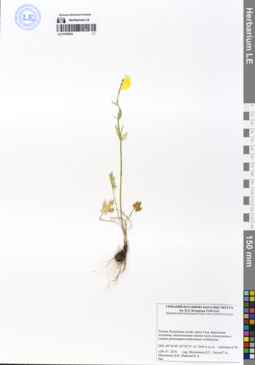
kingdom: Plantae
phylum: Tracheophyta
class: Magnoliopsida
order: Ranunculales
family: Ranunculaceae
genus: Ranunculus
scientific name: Ranunculus pedatifidus
